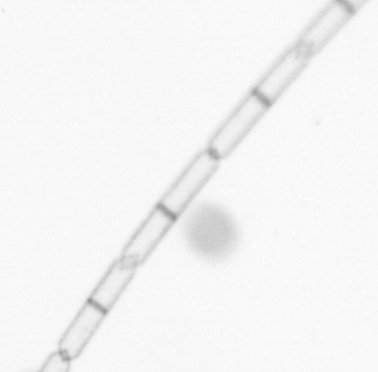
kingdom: Chromista
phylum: Ochrophyta
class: Bacillariophyceae
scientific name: Bacillariophyceae
